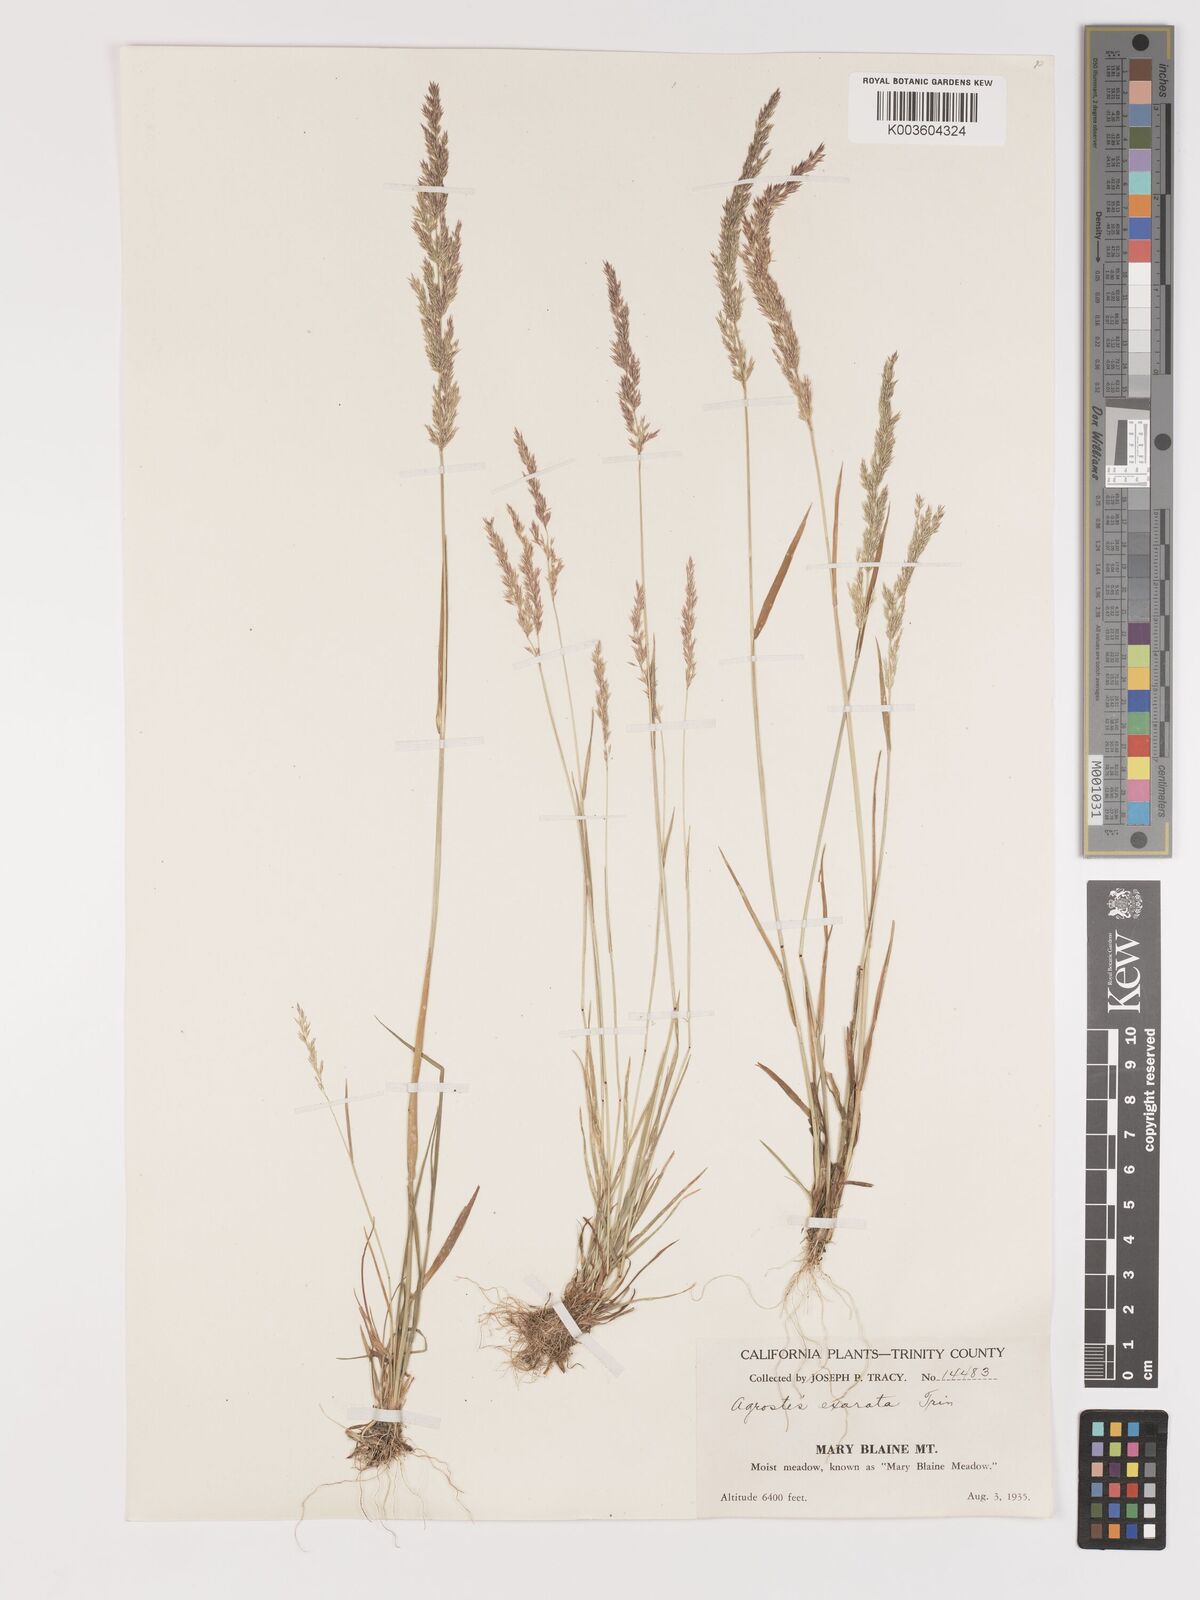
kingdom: Plantae
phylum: Tracheophyta
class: Liliopsida
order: Poales
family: Poaceae
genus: Agrostis
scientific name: Agrostis exarata
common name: Spike bent
